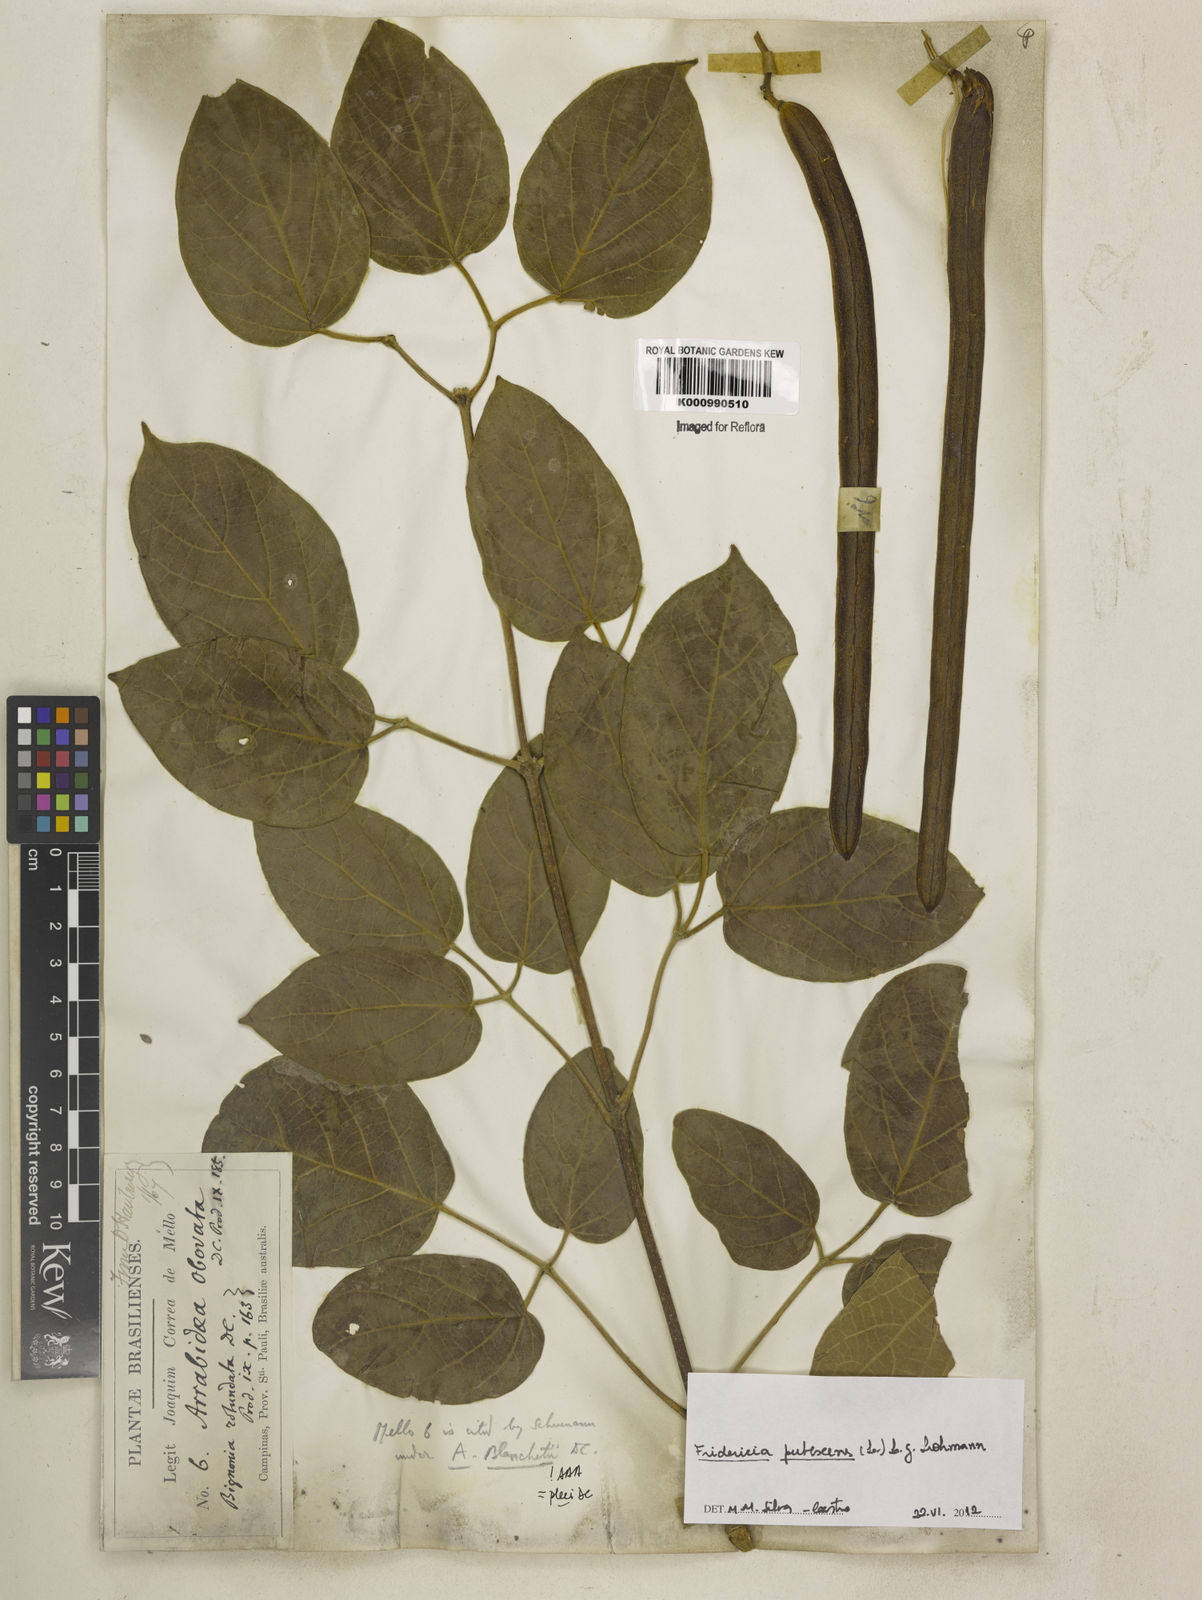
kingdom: Plantae
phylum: Tracheophyta
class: Magnoliopsida
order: Lamiales
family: Bignoniaceae
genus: Fridericia
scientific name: Fridericia pubescens
